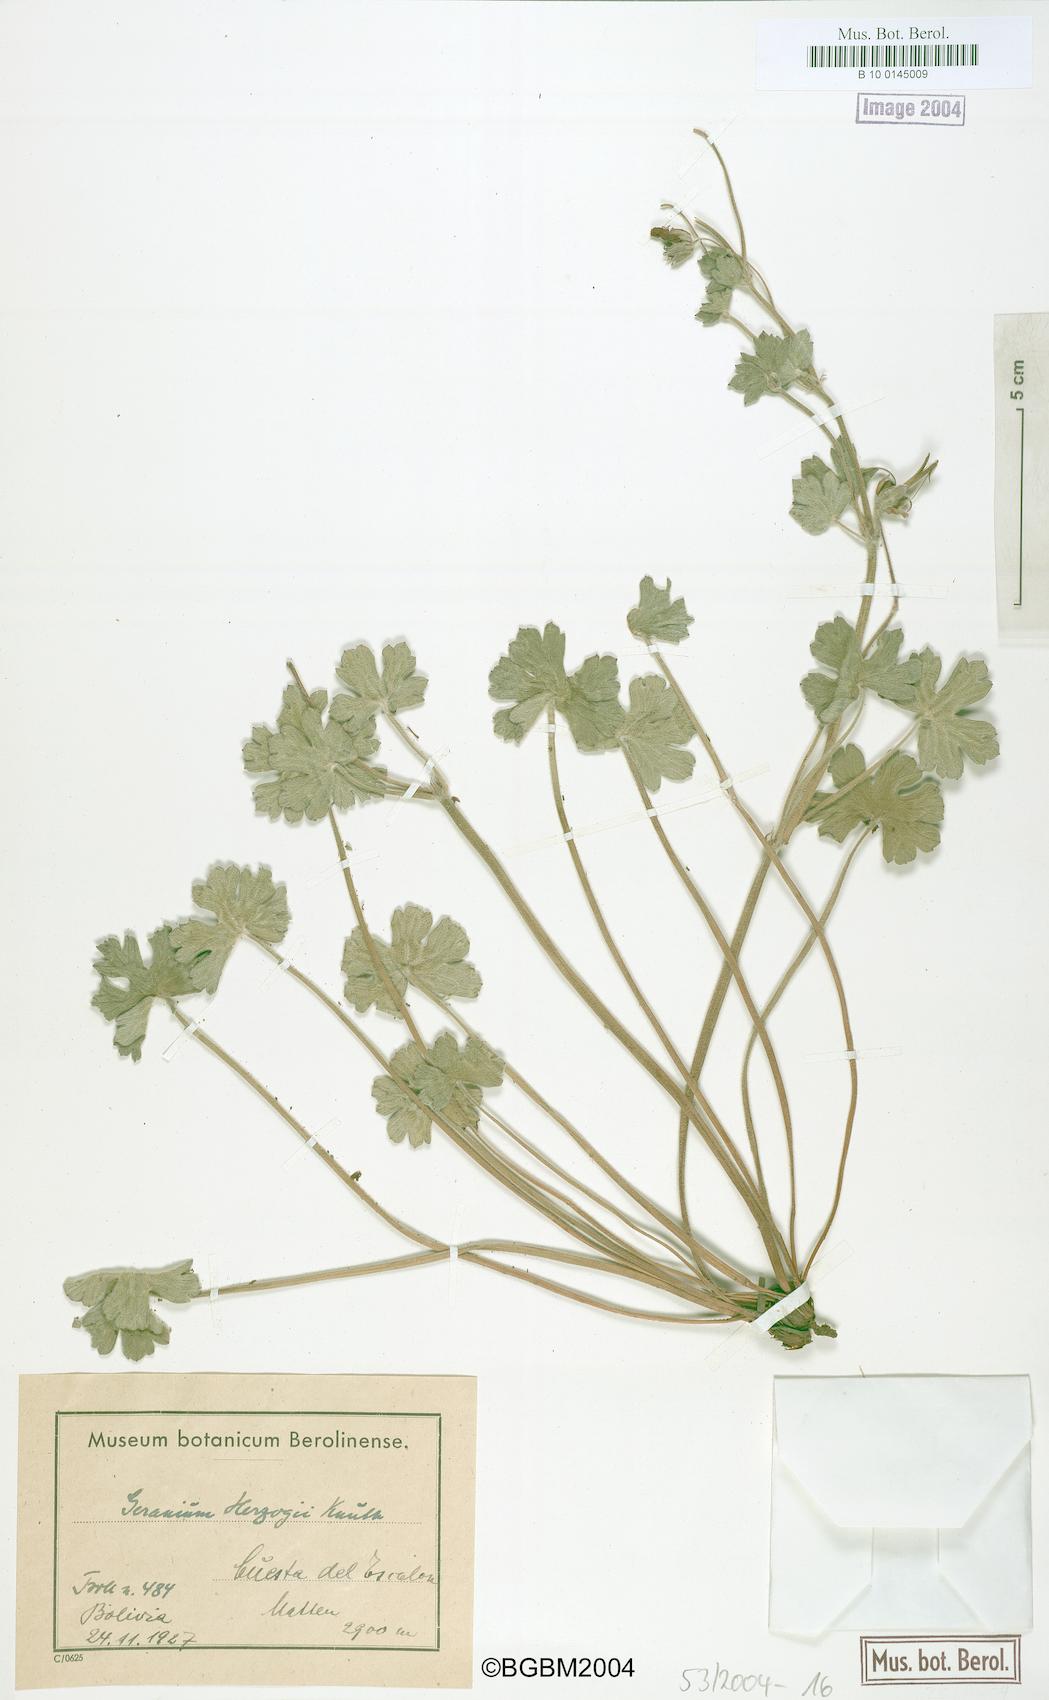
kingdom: Plantae
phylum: Tracheophyta
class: Magnoliopsida
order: Geraniales
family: Geraniaceae
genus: Geranium
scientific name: Geranium rupicola
